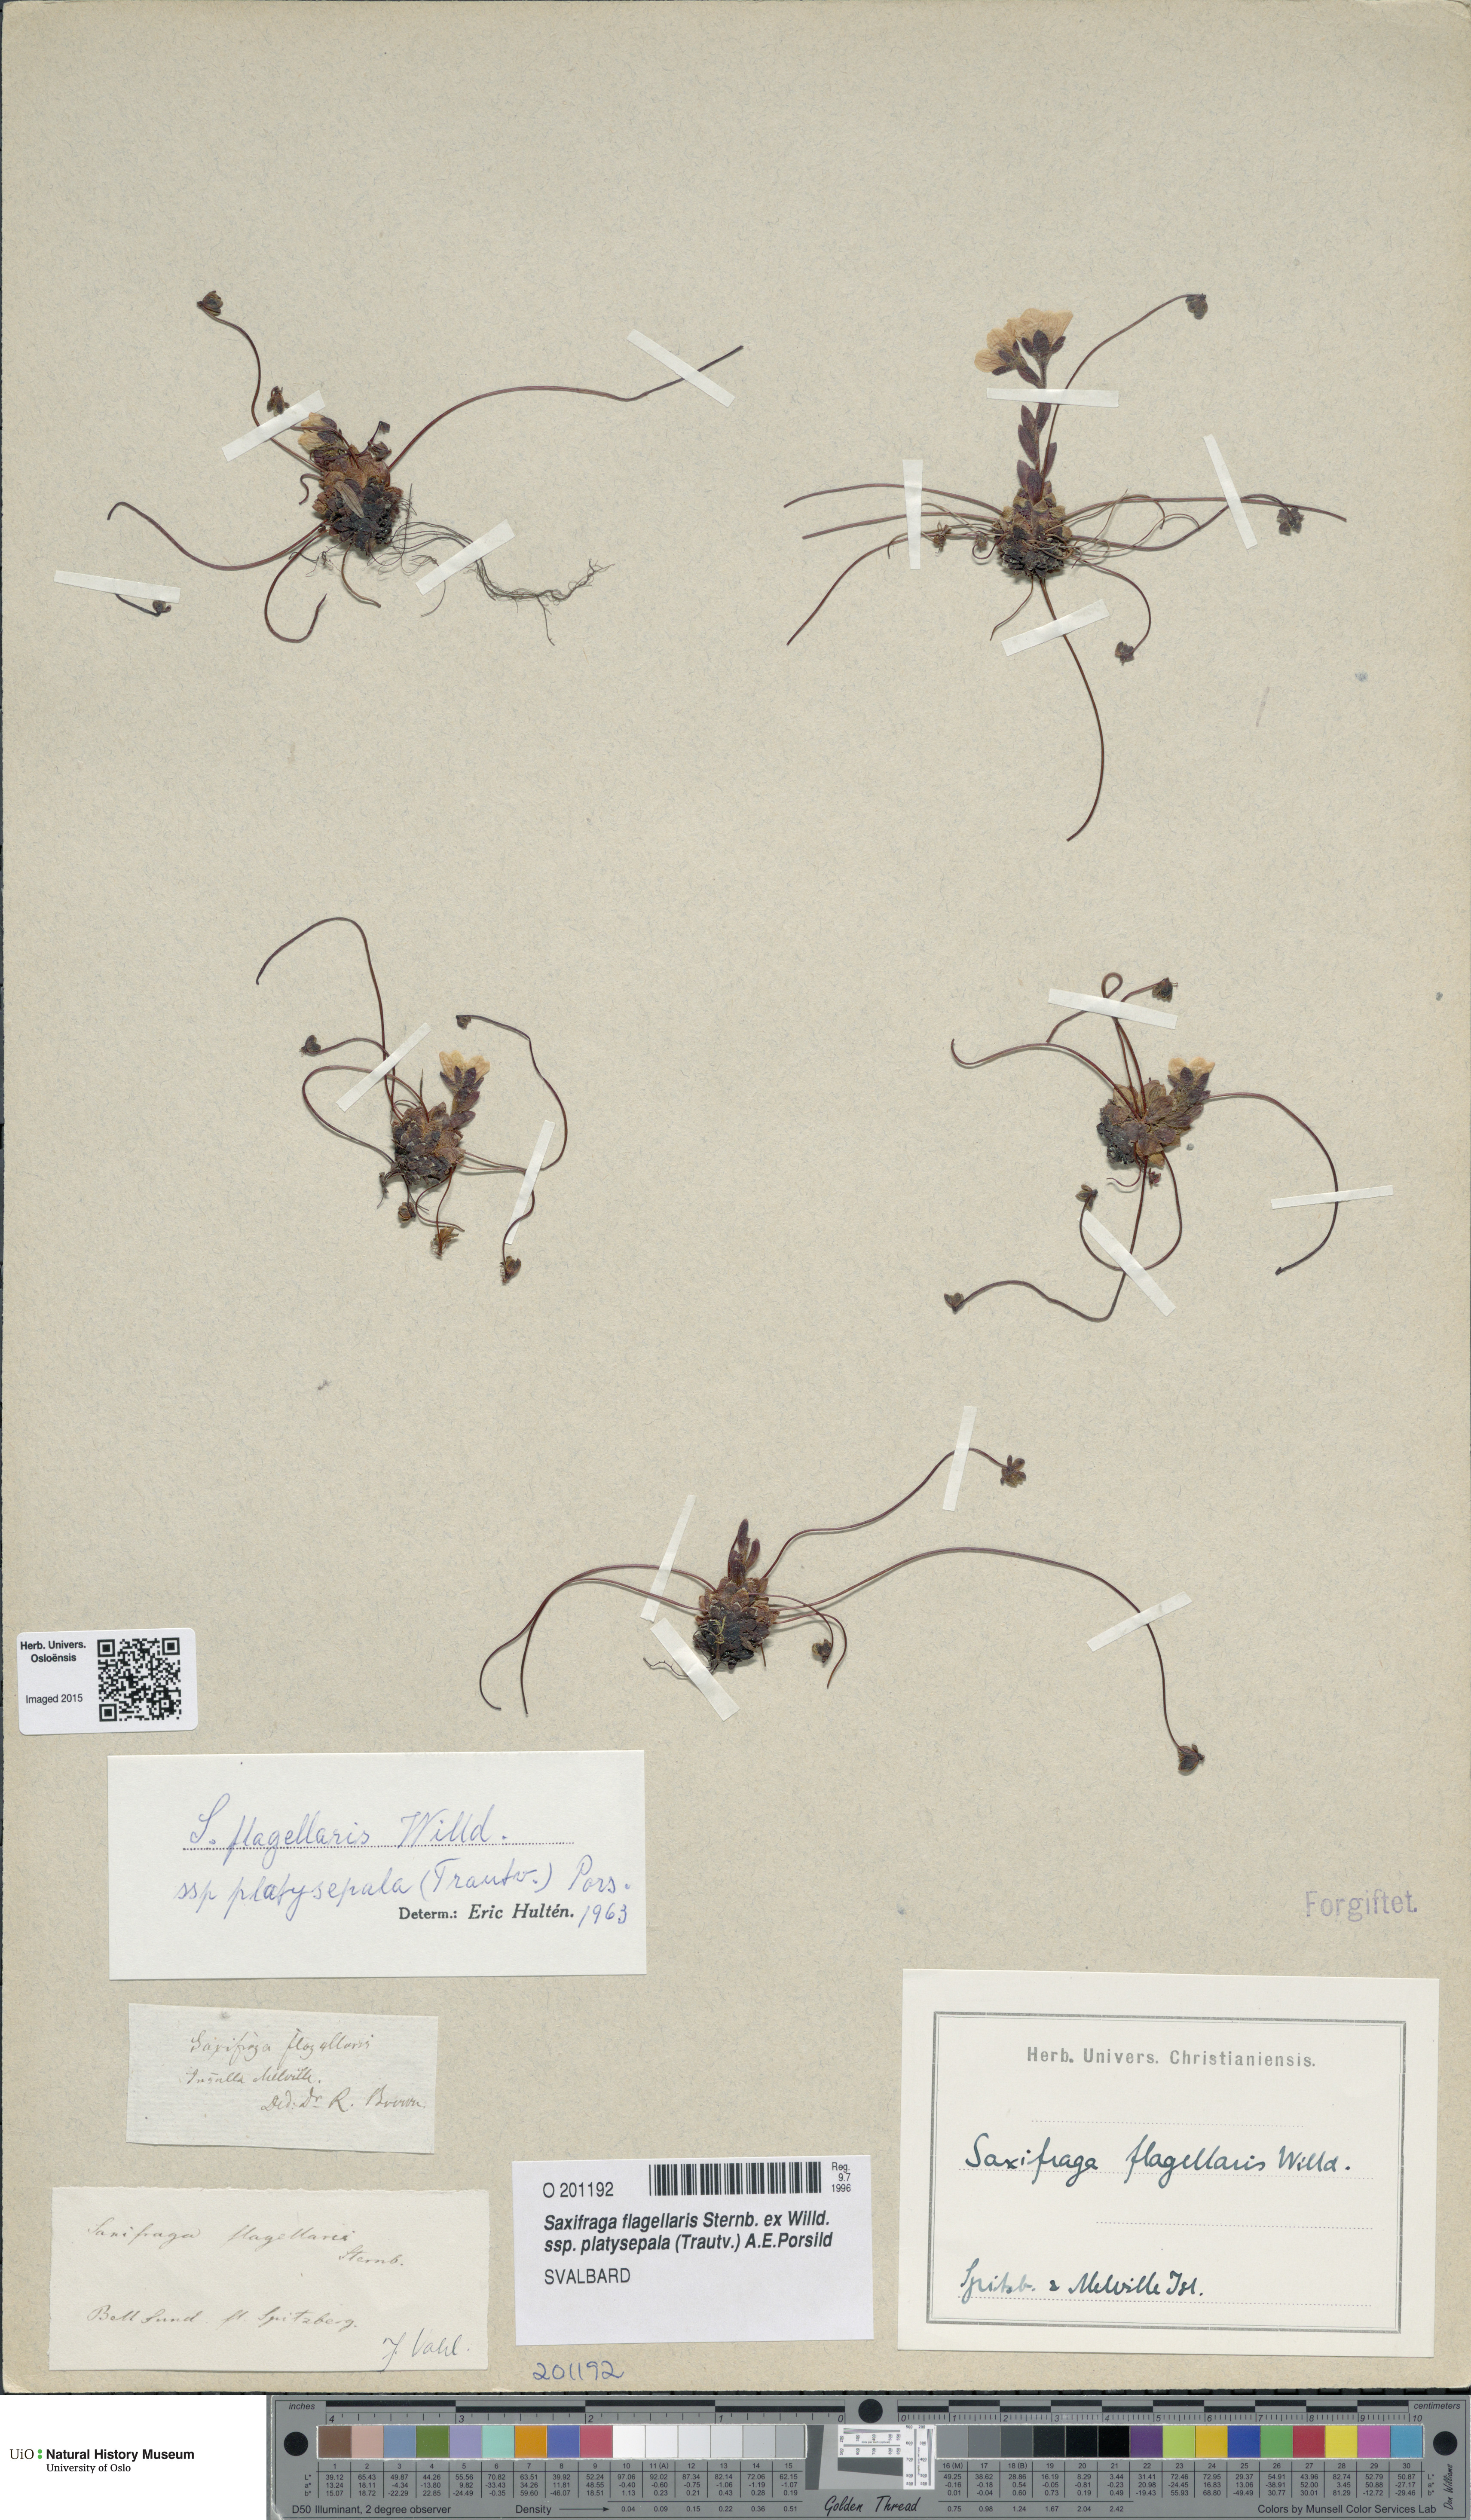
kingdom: Plantae
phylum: Tracheophyta
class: Magnoliopsida
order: Saxifragales
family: Saxifragaceae
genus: Saxifraga
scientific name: Saxifraga platysepala
